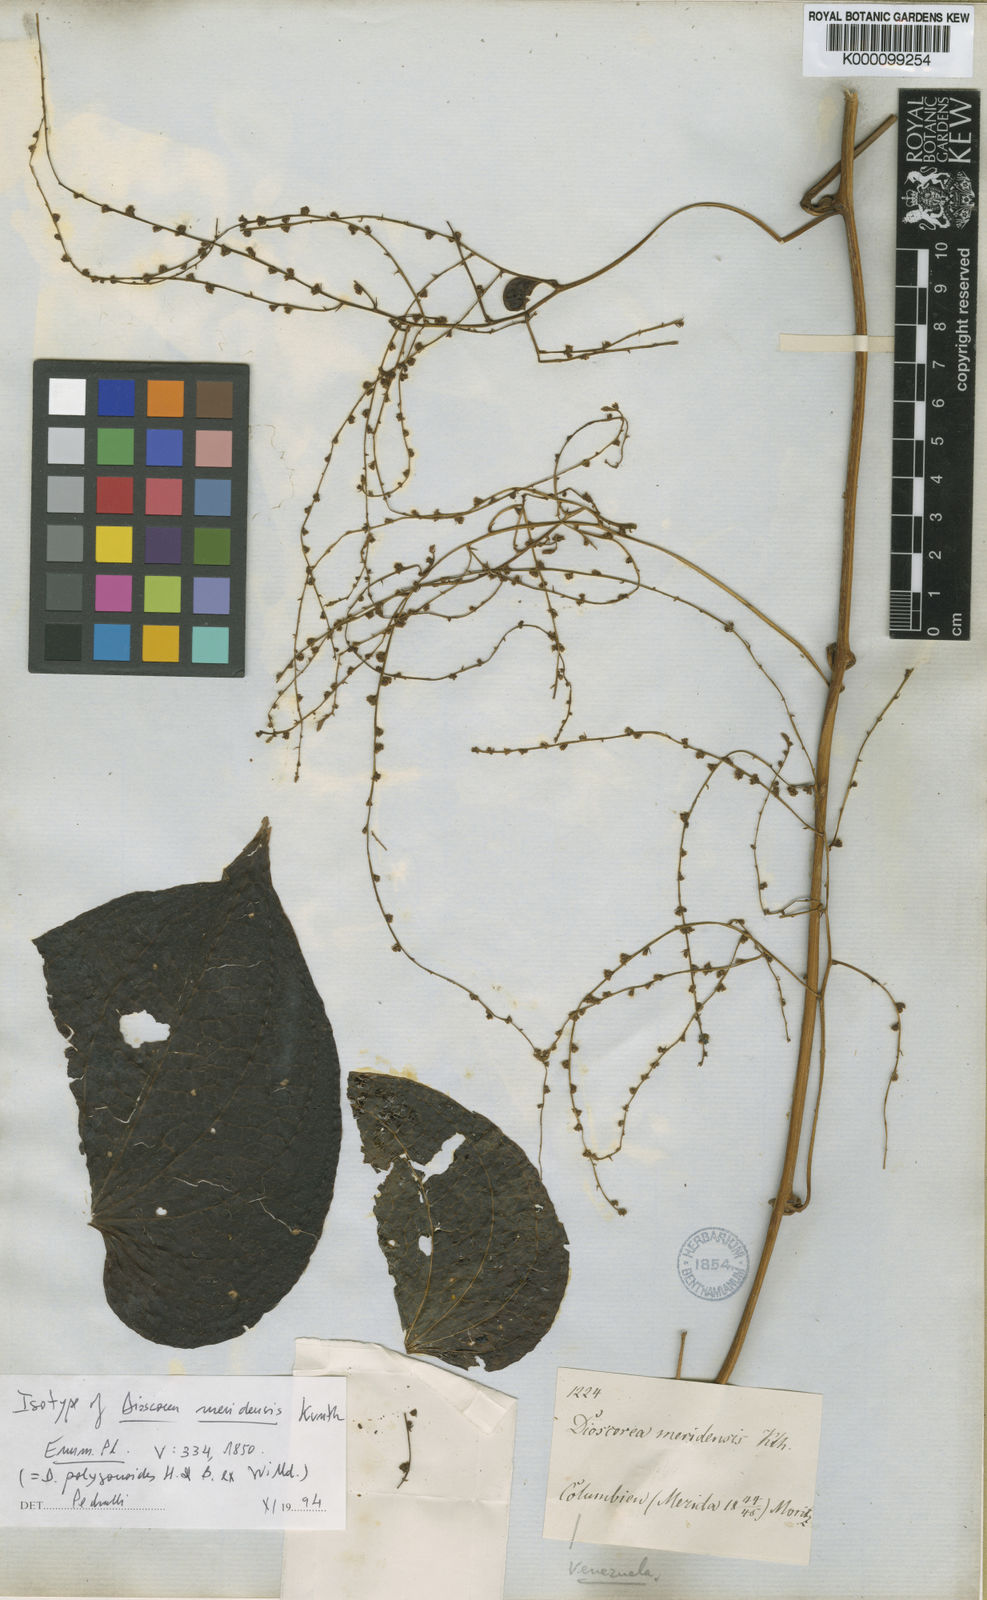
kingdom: Plantae
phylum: Tracheophyta
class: Liliopsida
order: Dioscoreales
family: Dioscoreaceae
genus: Dioscorea
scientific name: Dioscorea meridensis
